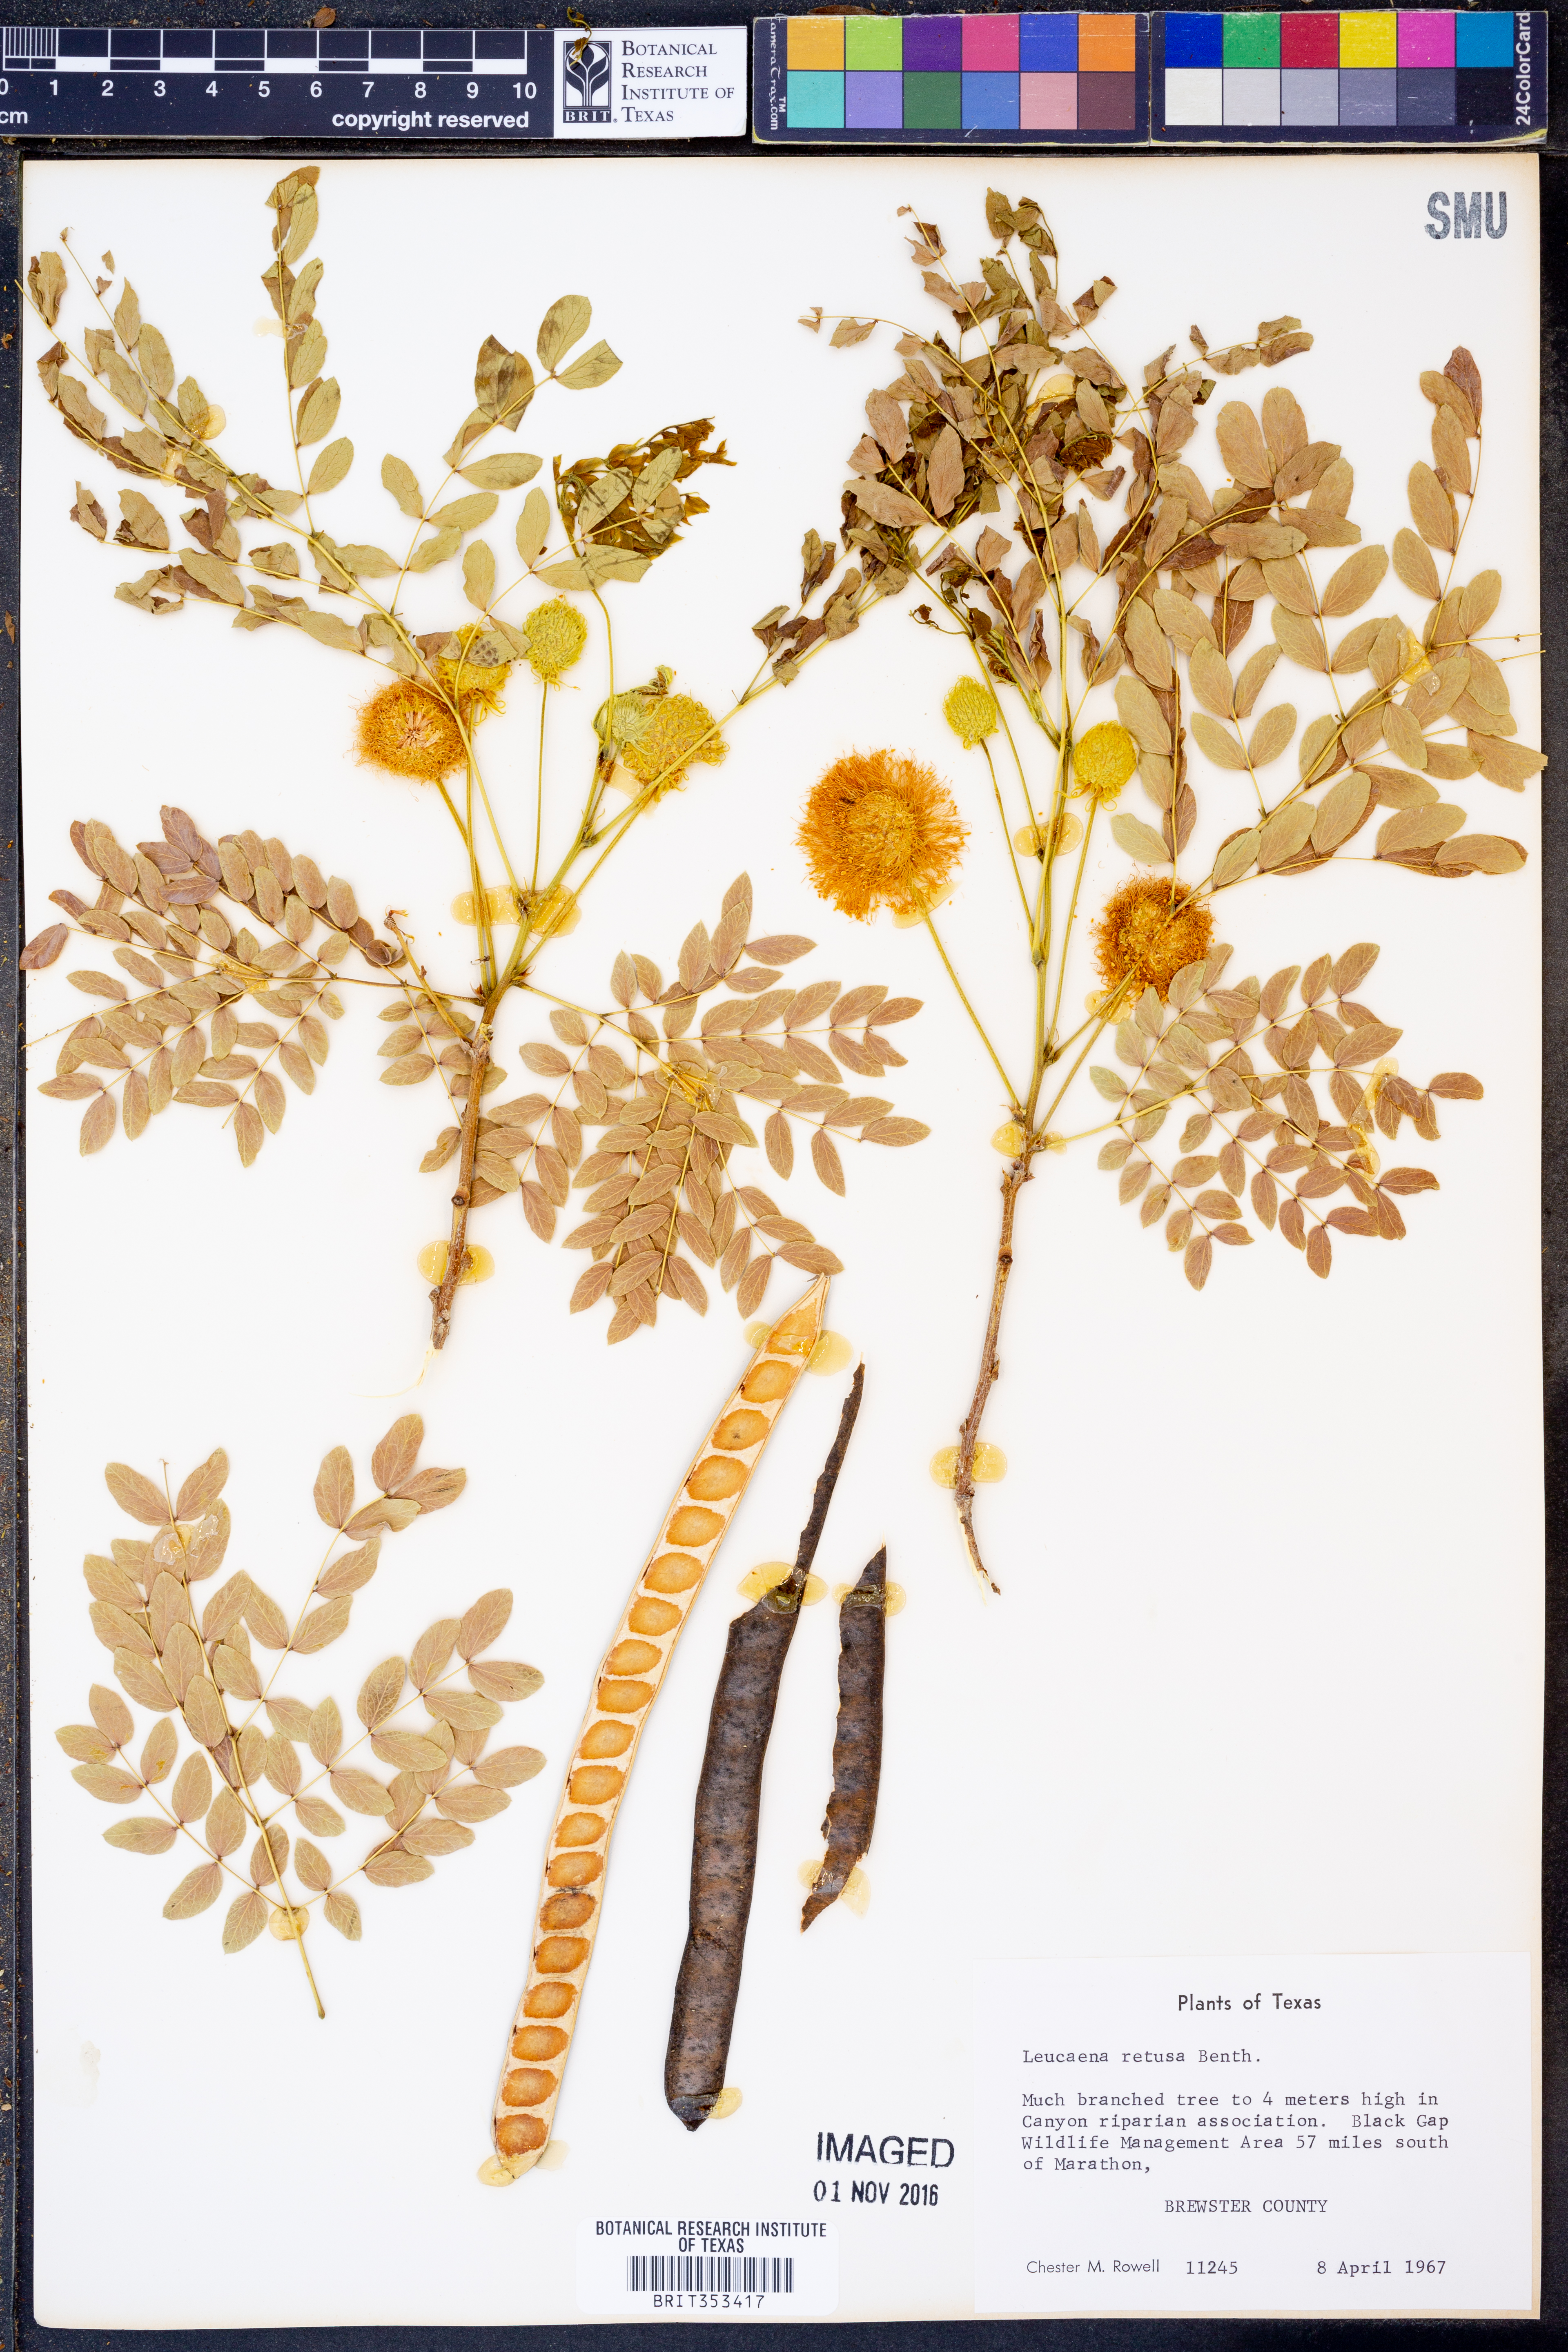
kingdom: Plantae
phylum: Tracheophyta
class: Magnoliopsida
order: Fabales
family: Fabaceae
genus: Leucaena
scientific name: Leucaena retusa
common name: Littleleaf leadtree
